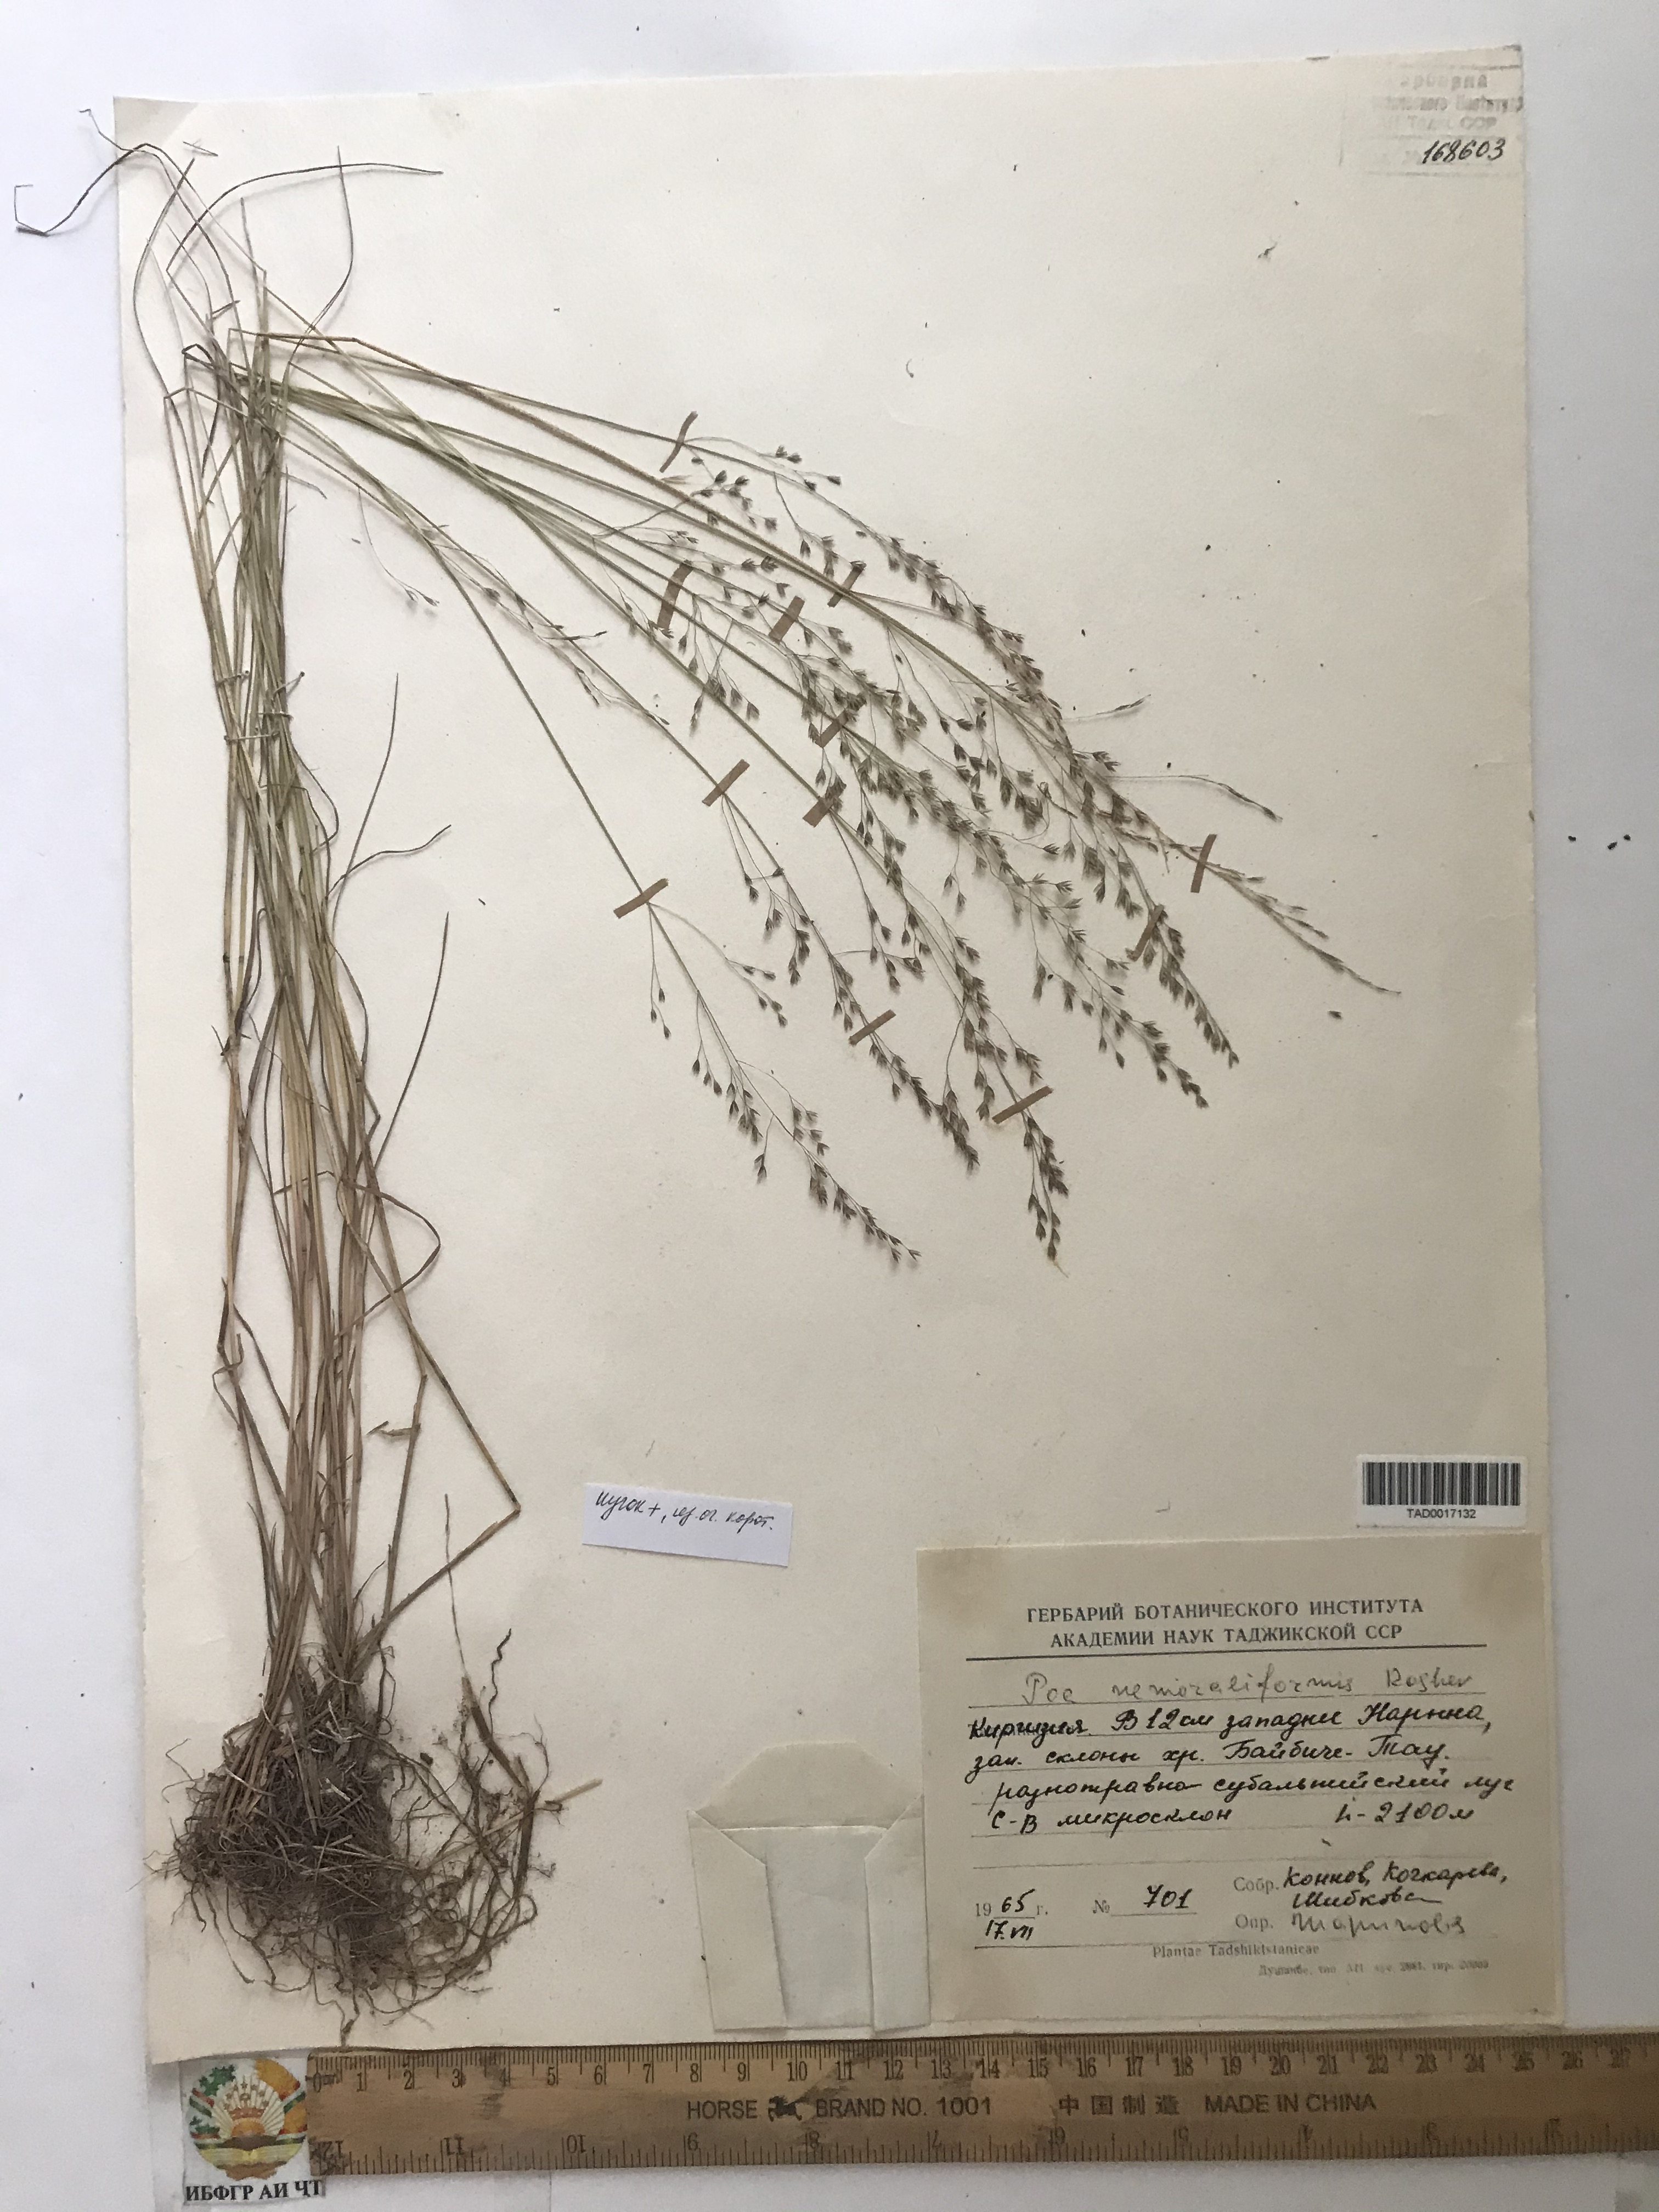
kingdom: Plantae
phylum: Tracheophyta
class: Liliopsida
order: Poales
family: Poaceae
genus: Poa
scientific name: Poa urssulensis
